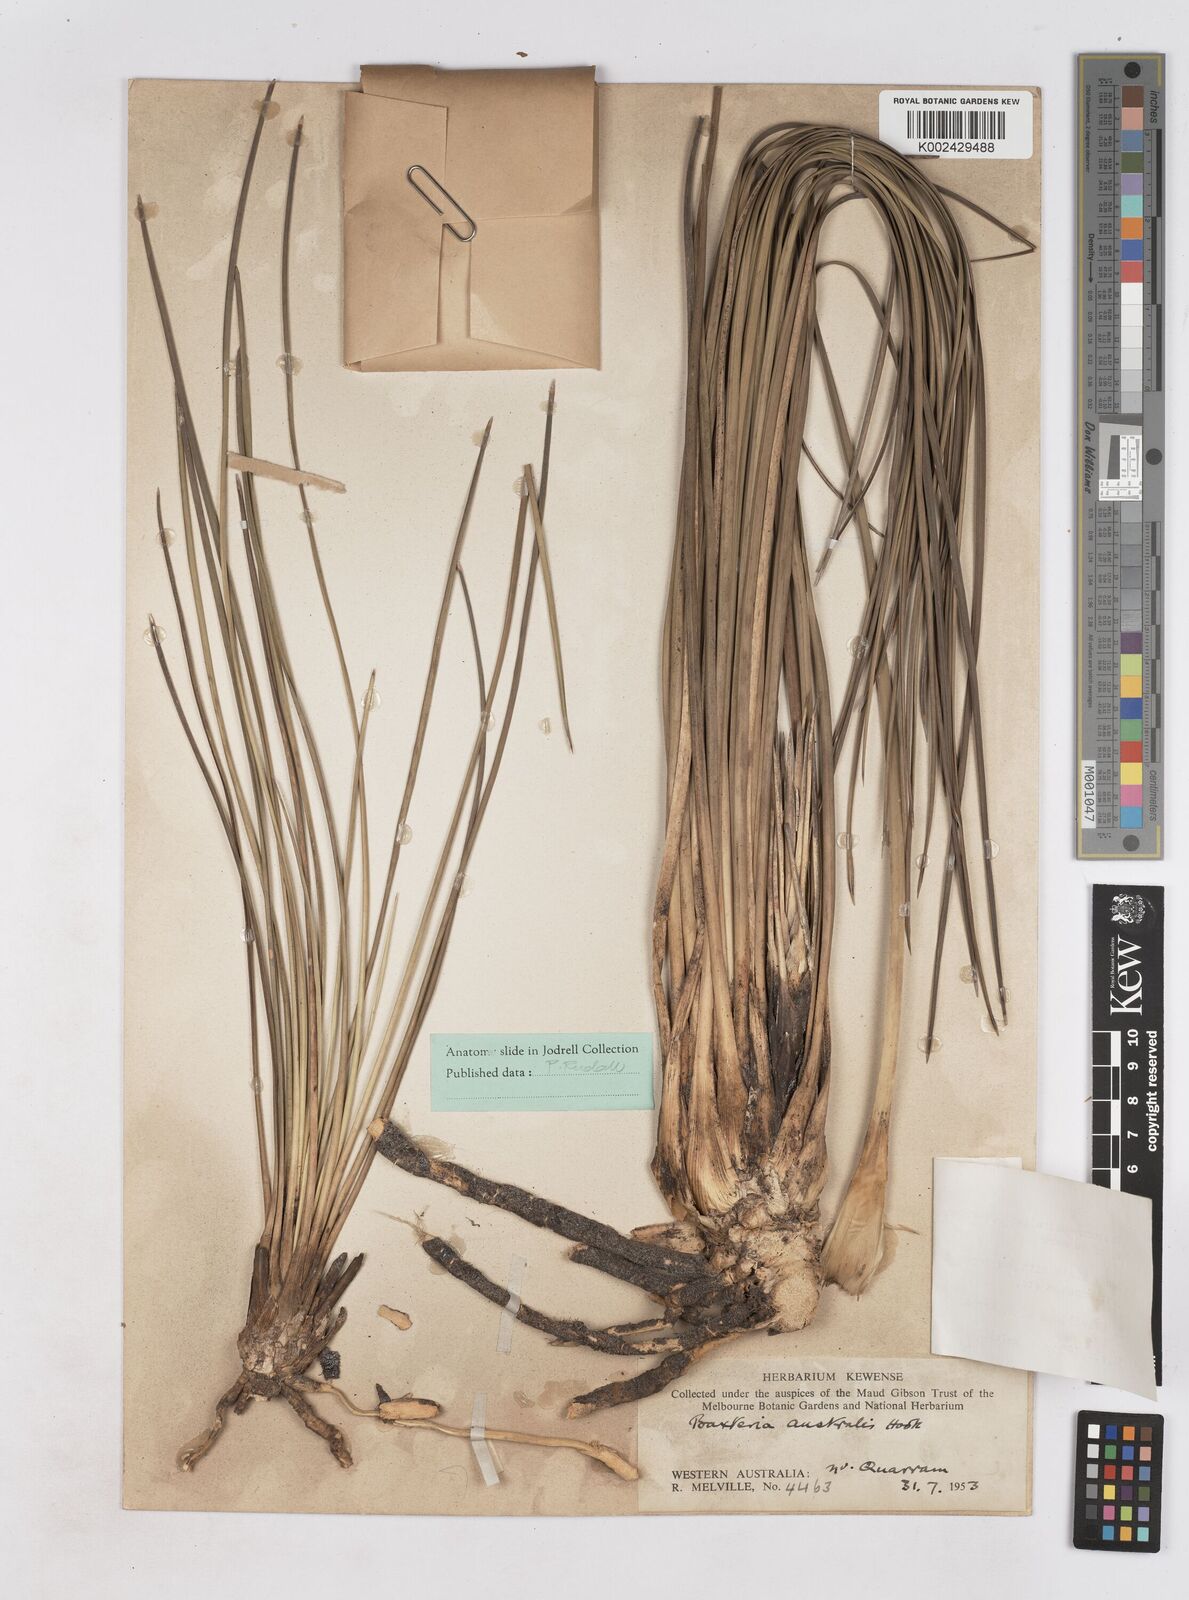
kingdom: Plantae
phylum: Tracheophyta
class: Liliopsida
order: Arecales
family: Dasypogonaceae
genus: Baxteria
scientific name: Baxteria australis
